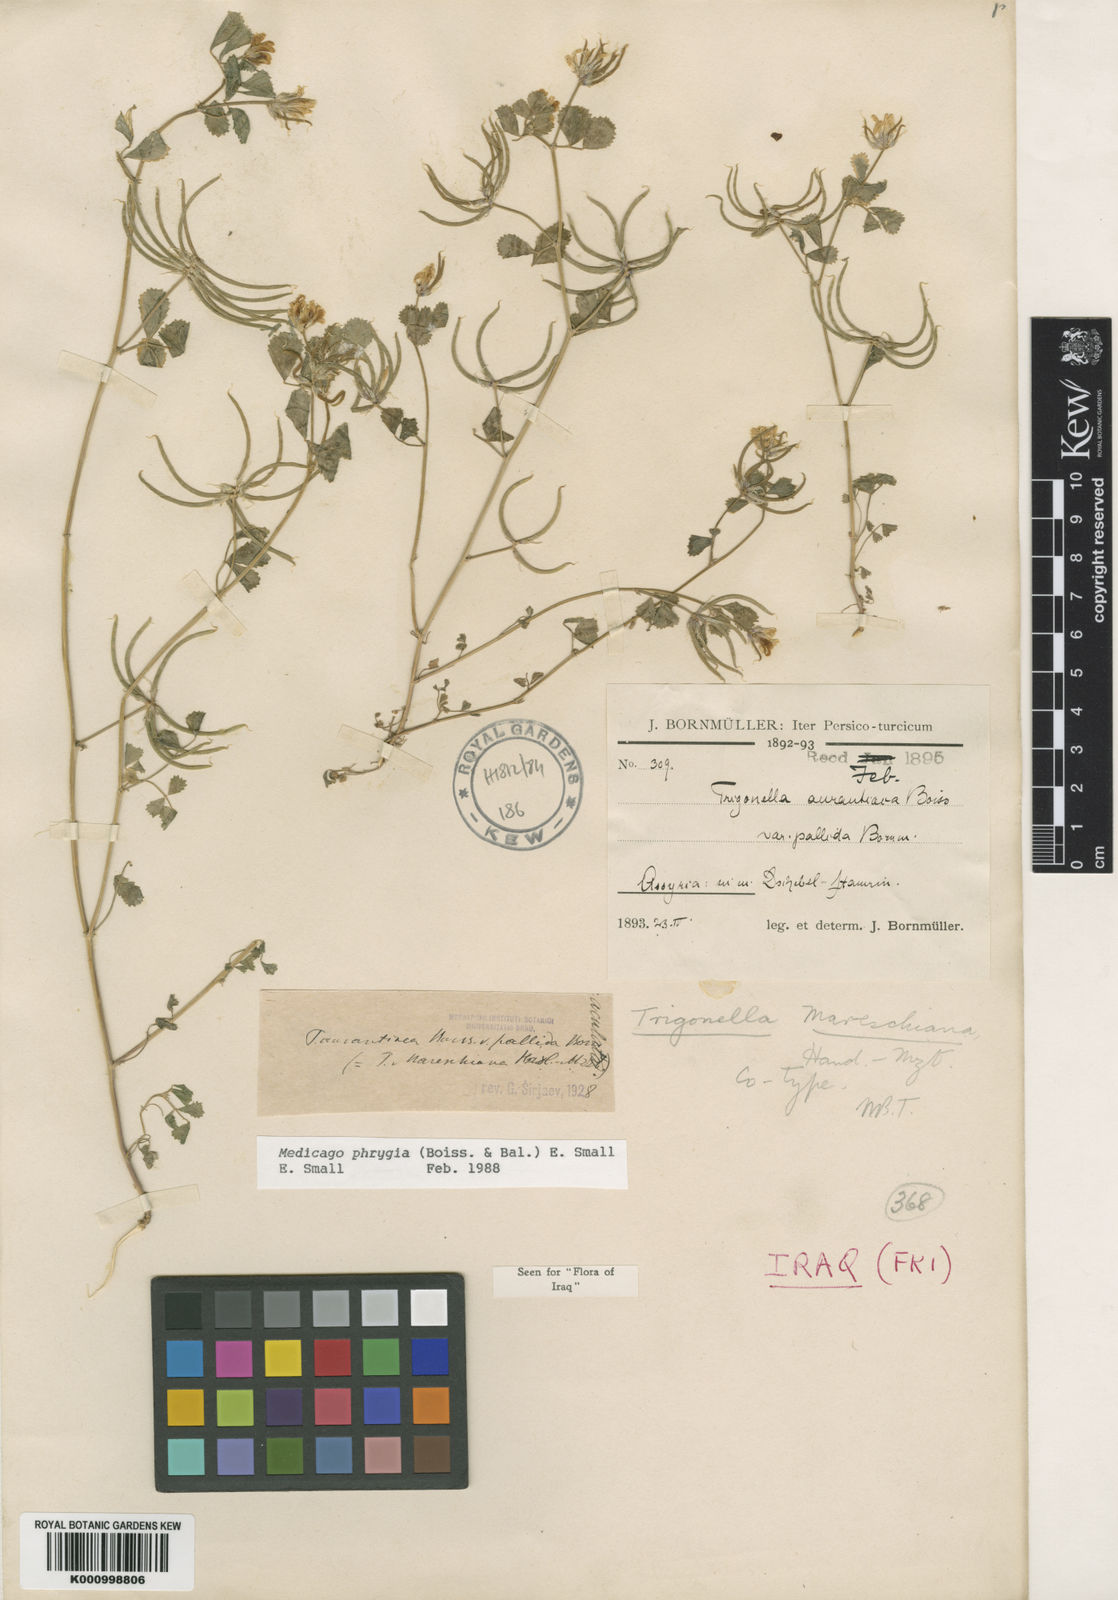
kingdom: Plantae
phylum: Tracheophyta
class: Magnoliopsida
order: Fabales
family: Fabaceae
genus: Medicago
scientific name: Medicago phrygia
